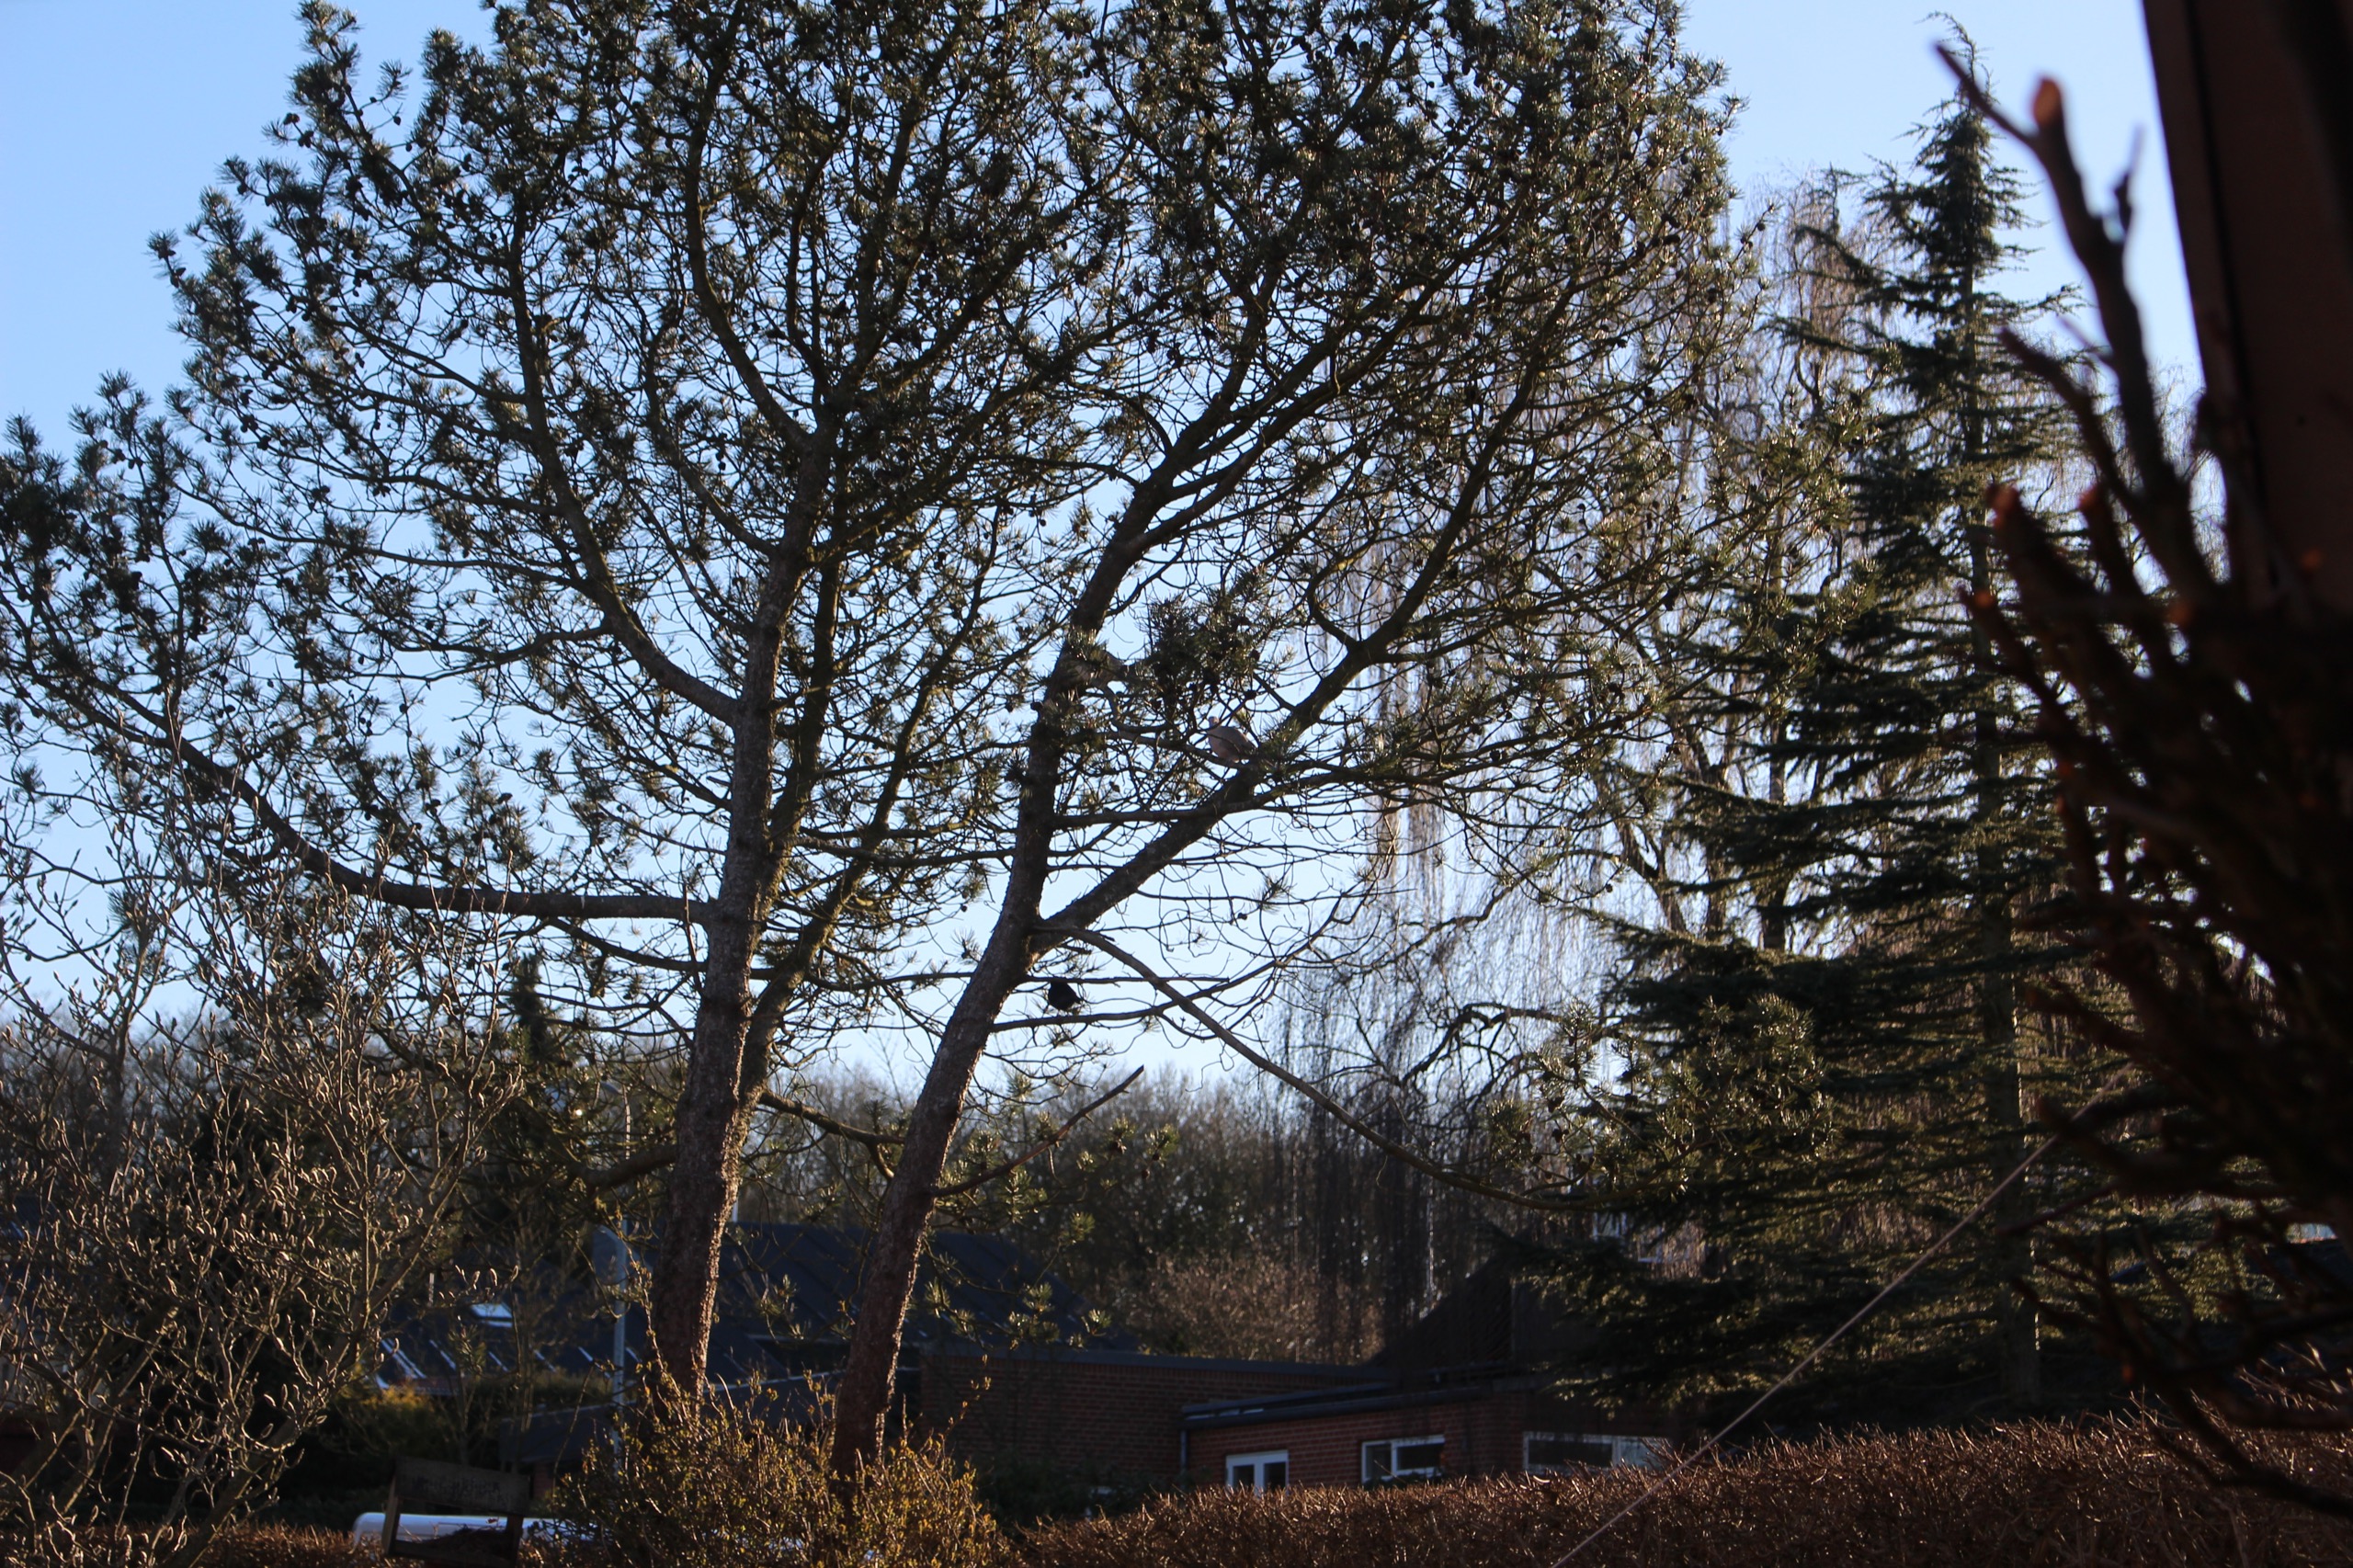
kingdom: Animalia
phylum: Chordata
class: Aves
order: Columbiformes
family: Columbidae
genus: Streptopelia
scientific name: Streptopelia decaocto
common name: Tyrkerdue
